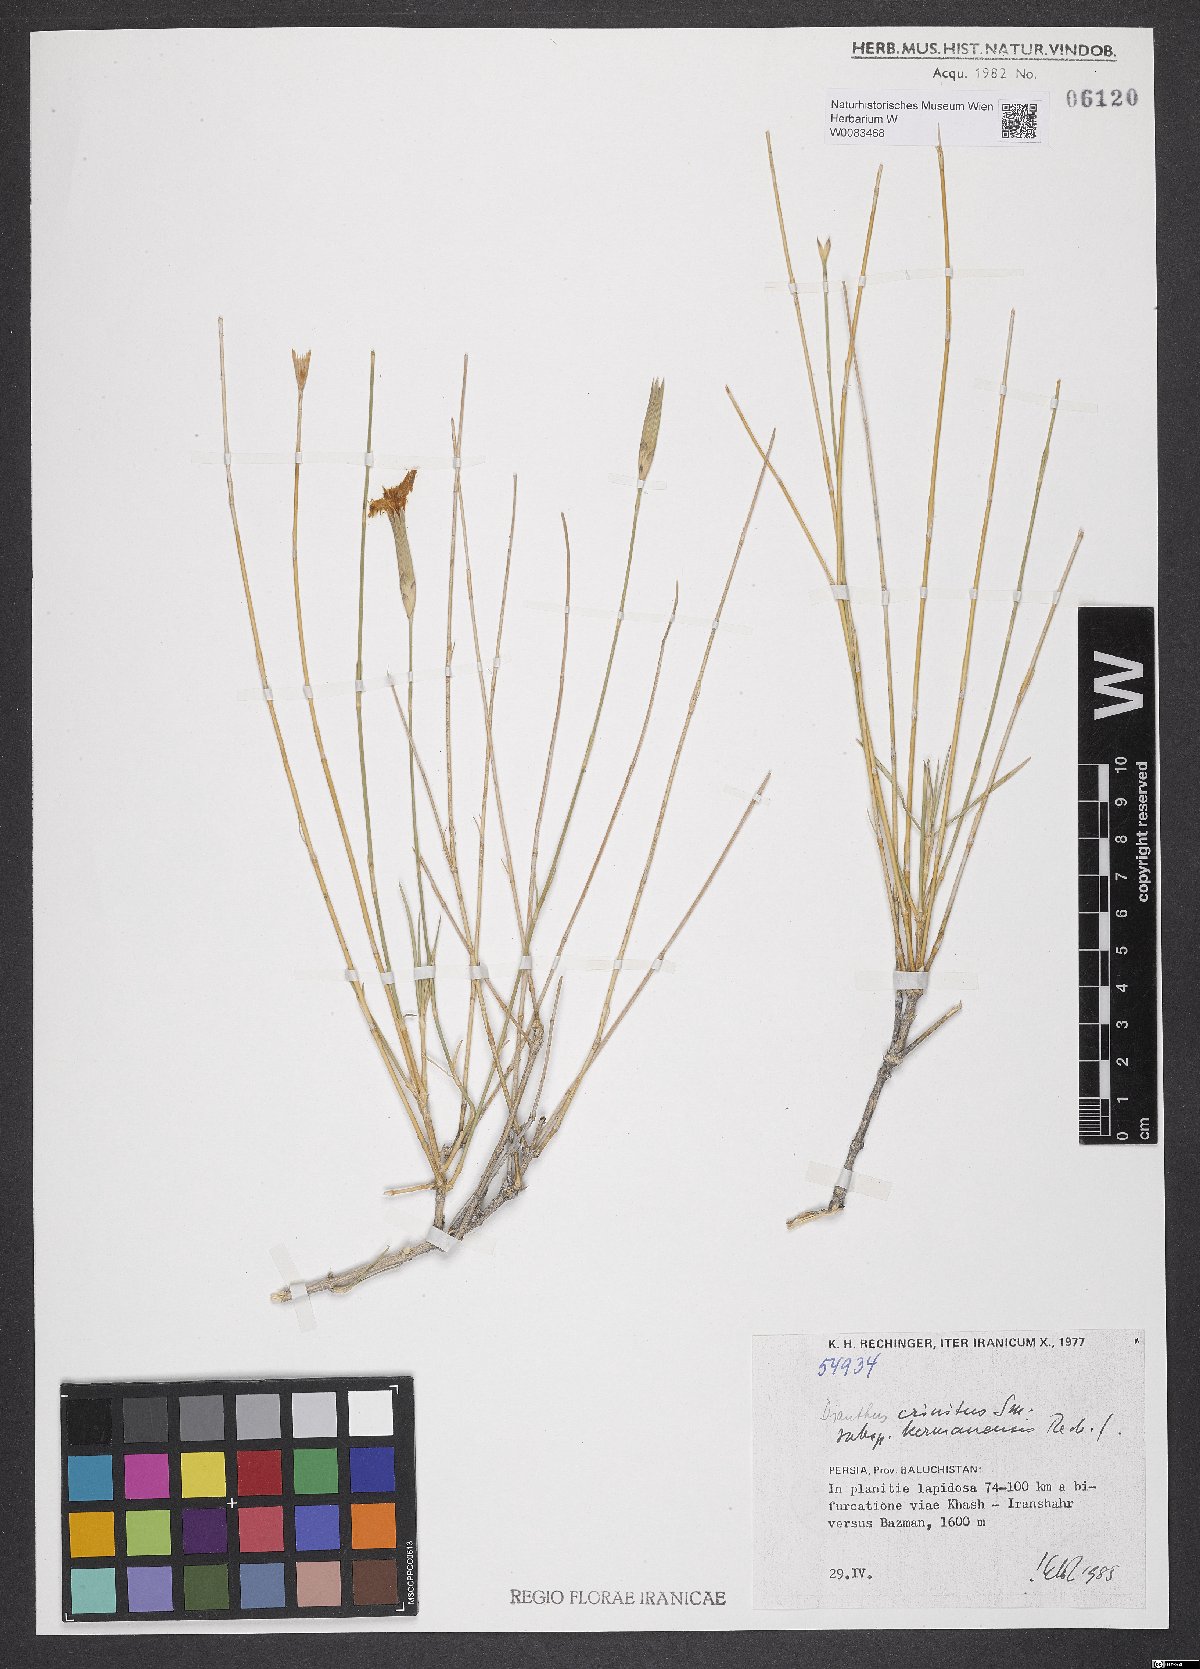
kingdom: Plantae
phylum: Tracheophyta
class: Magnoliopsida
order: Caryophyllales
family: Caryophyllaceae
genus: Dianthus
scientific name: Dianthus crinitus
